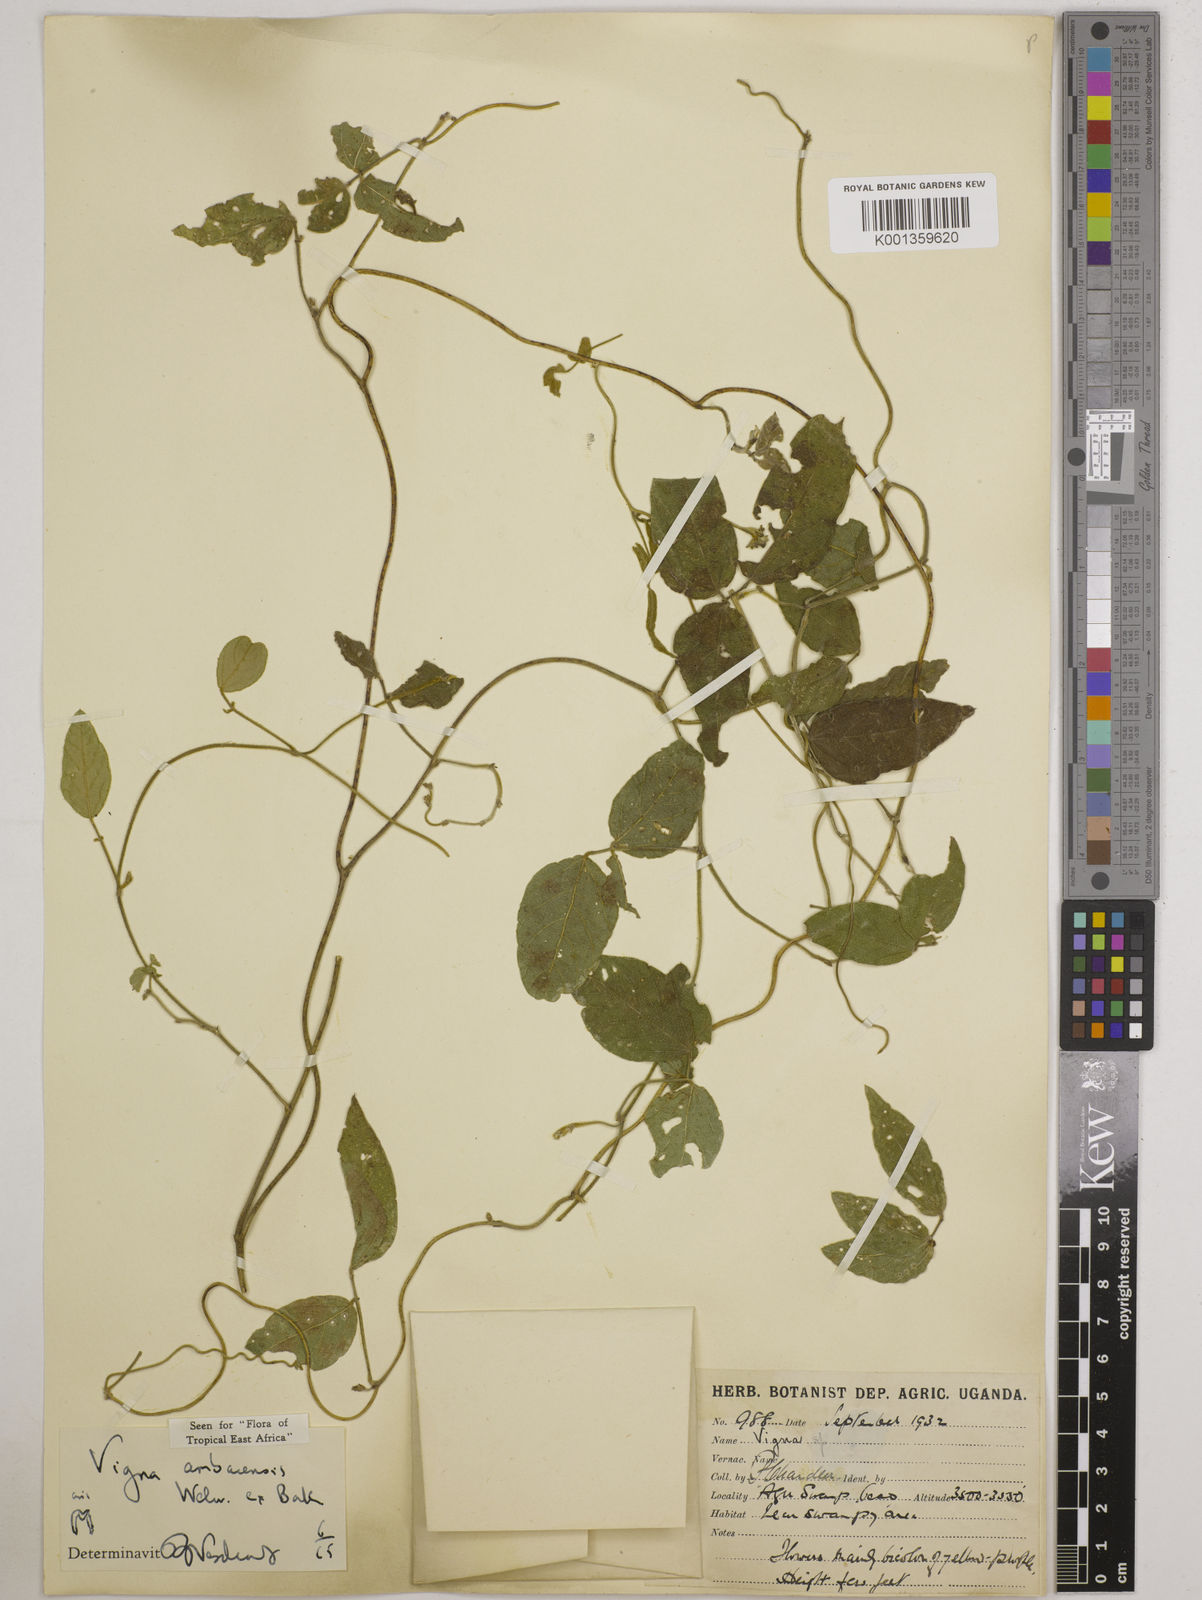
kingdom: Plantae
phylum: Tracheophyta
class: Magnoliopsida
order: Fabales
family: Fabaceae
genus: Vigna
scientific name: Vigna ambacensis
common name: Tsarkiyan zomo
